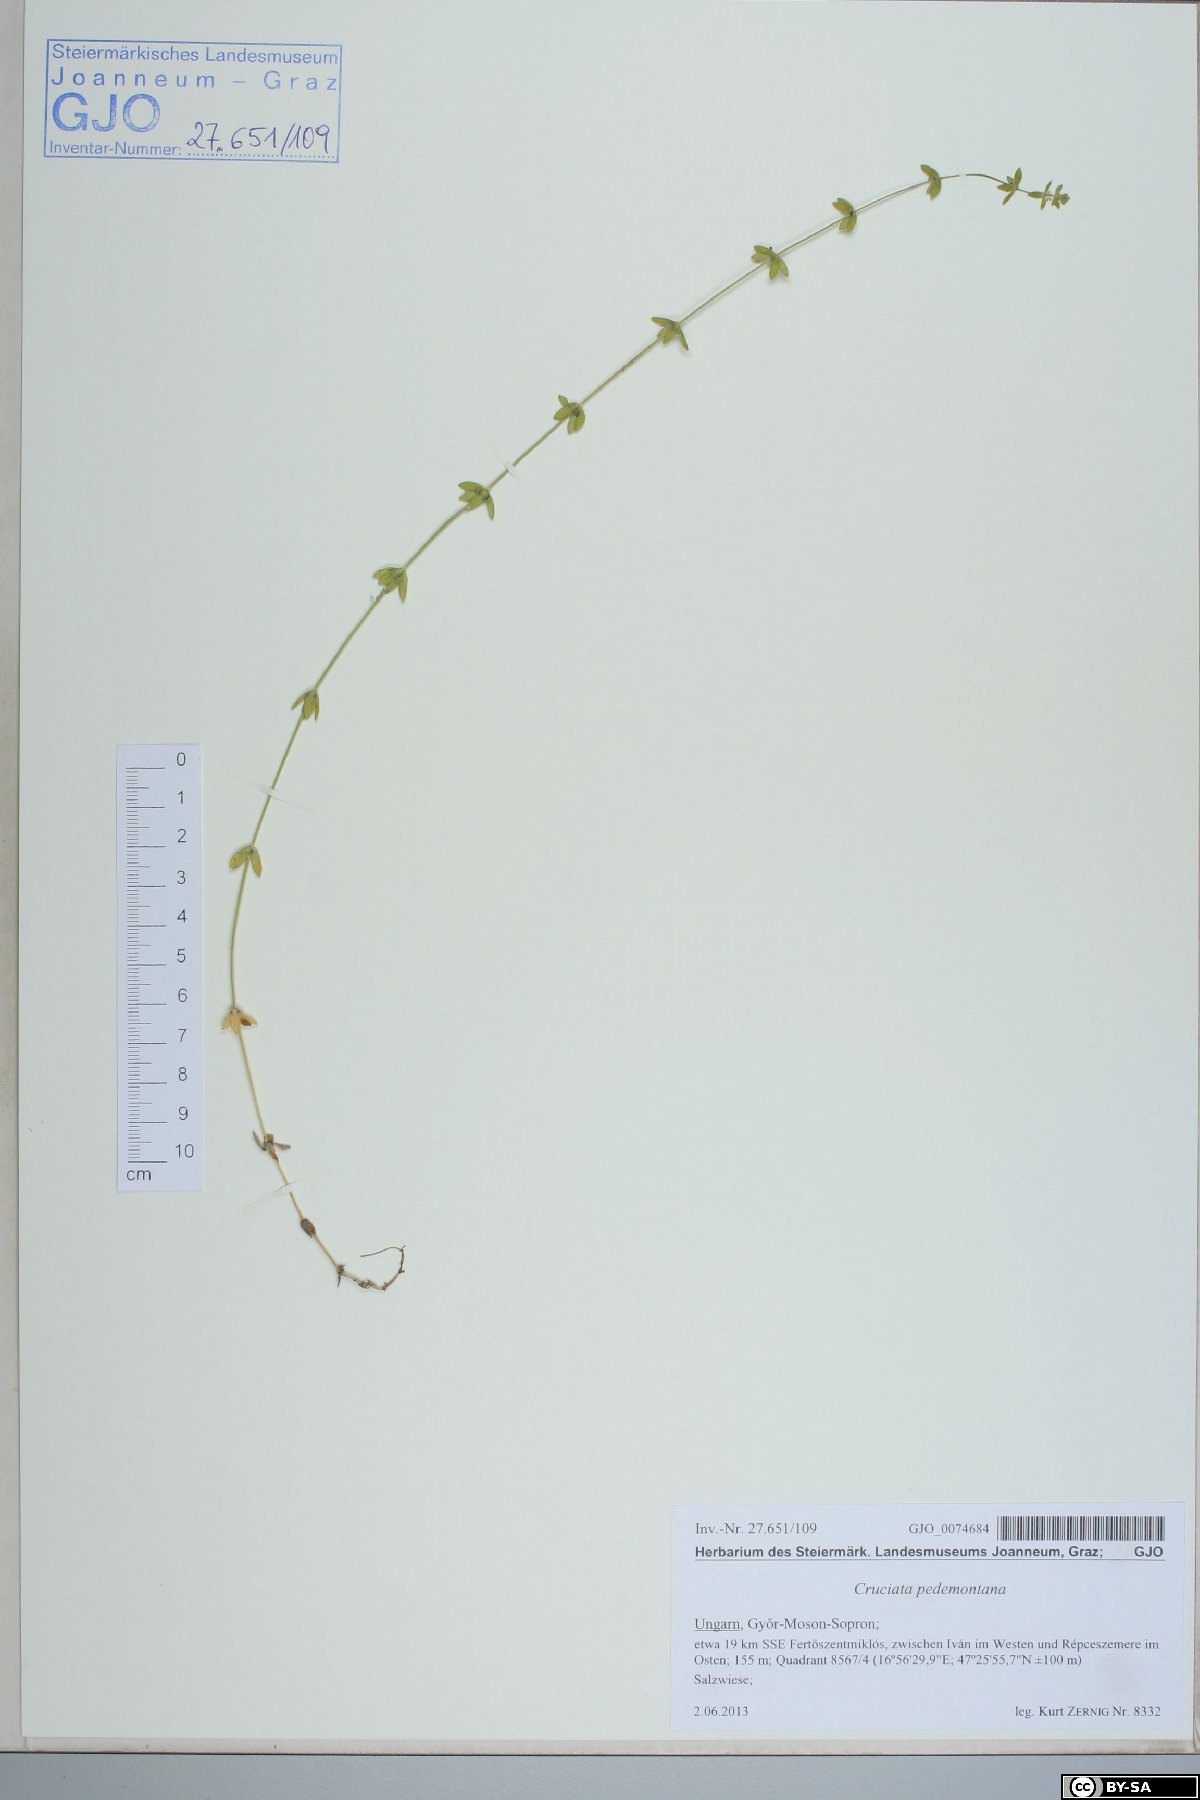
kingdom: Plantae
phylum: Tracheophyta
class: Magnoliopsida
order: Gentianales
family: Rubiaceae
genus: Cruciata
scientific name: Cruciata pedemontana
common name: Piedmont bedstraw
